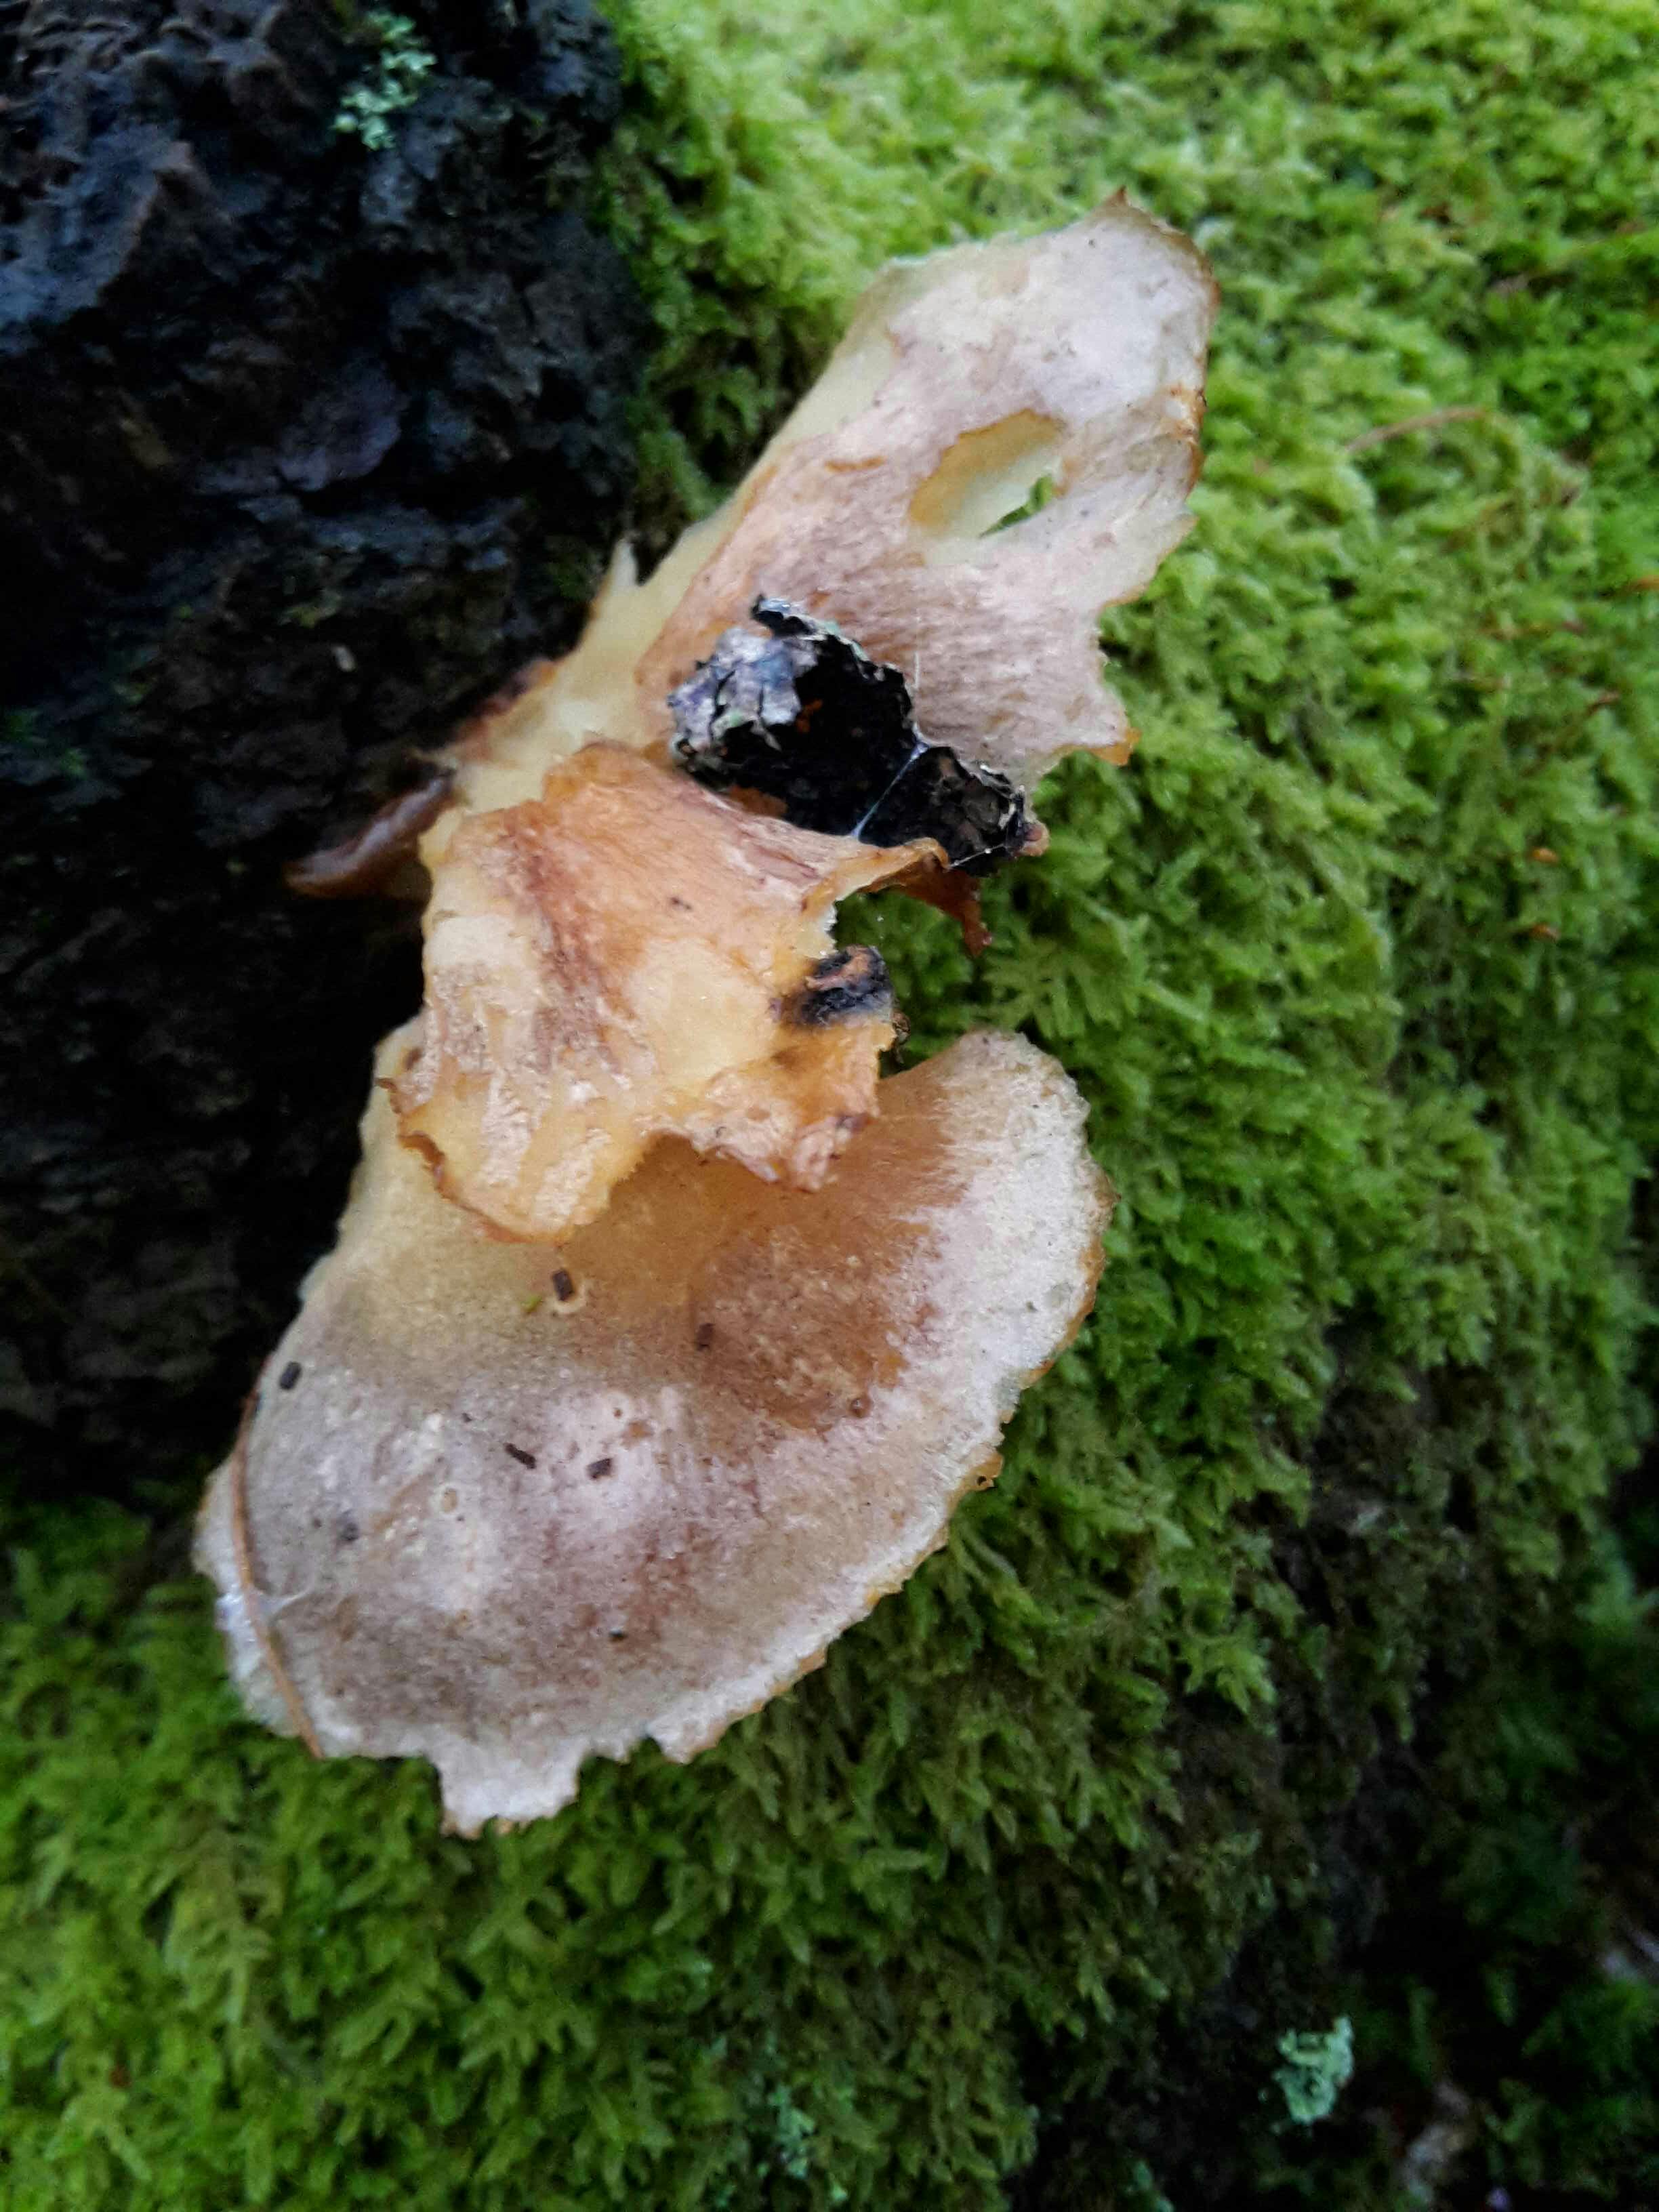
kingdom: Fungi
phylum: Basidiomycota
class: Agaricomycetes
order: Agaricales
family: Sarcomyxaceae
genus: Sarcomyxa
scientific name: Sarcomyxa serotina
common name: gummihat
